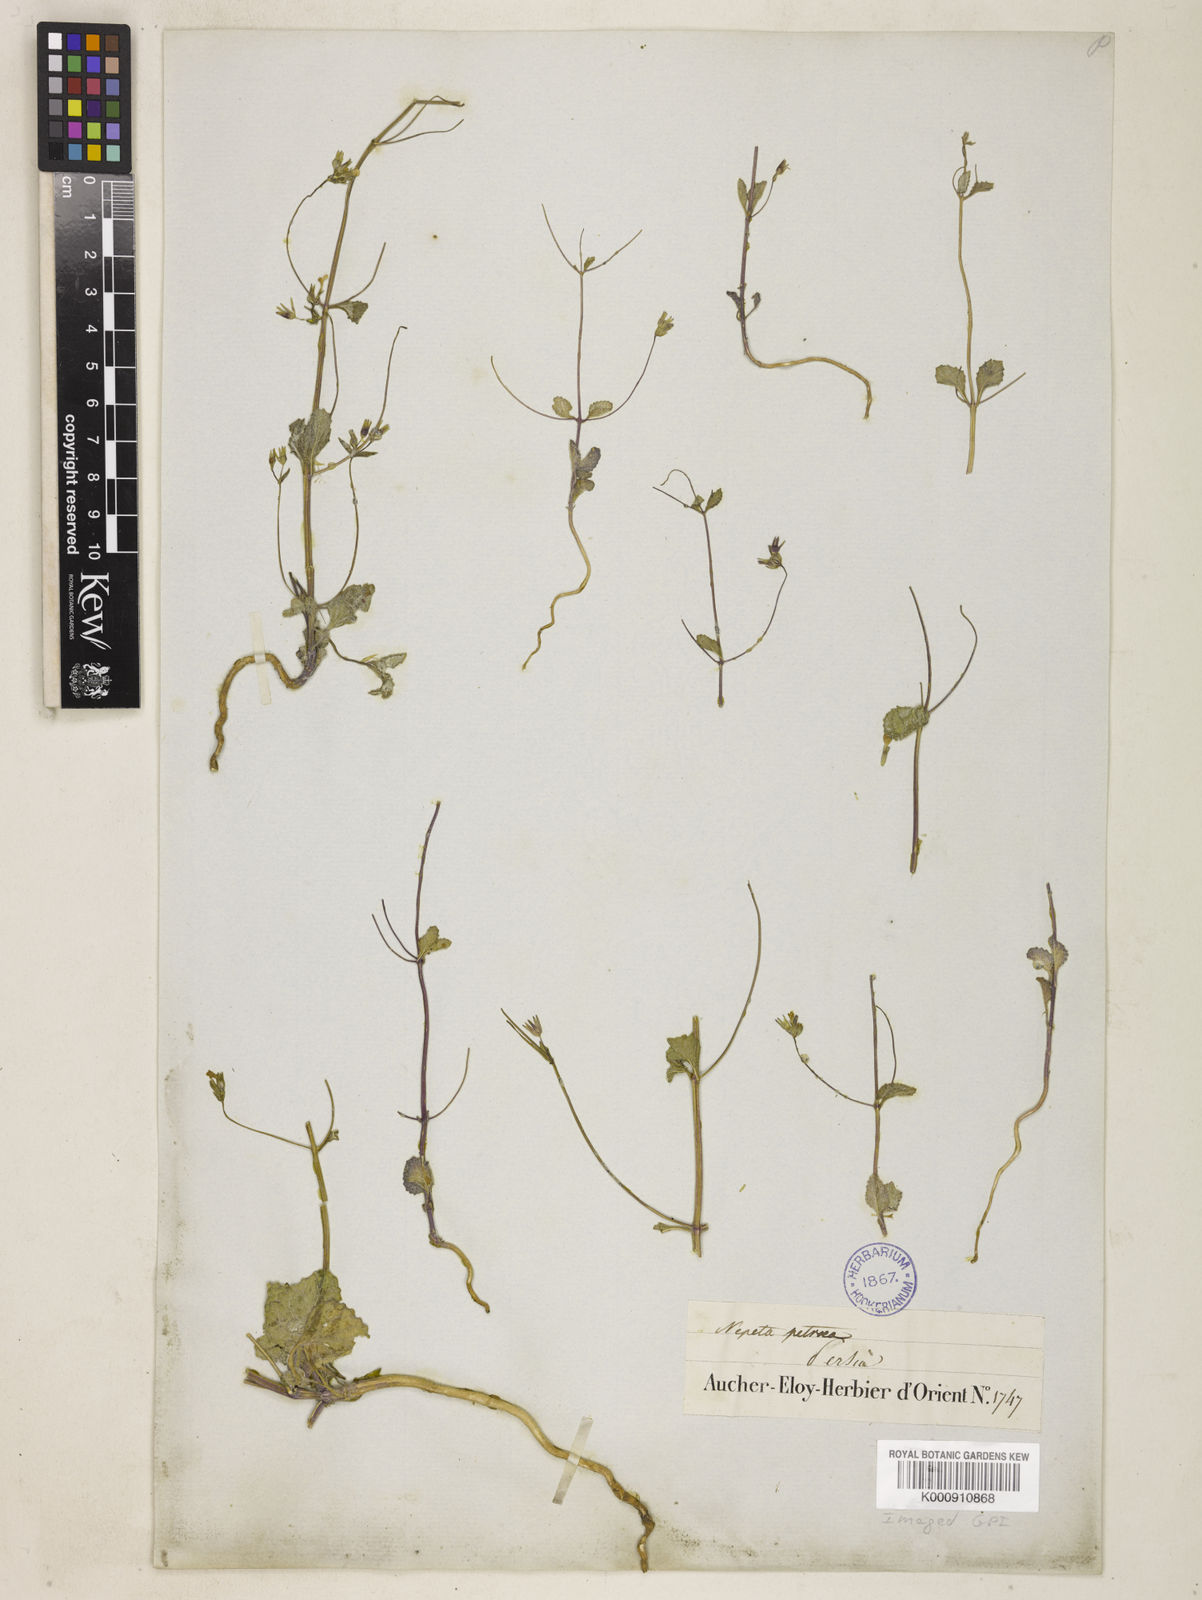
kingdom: Plantae
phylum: Tracheophyta
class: Magnoliopsida
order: Lamiales
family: Lamiaceae
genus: Nepeta
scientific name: Nepeta petraea
